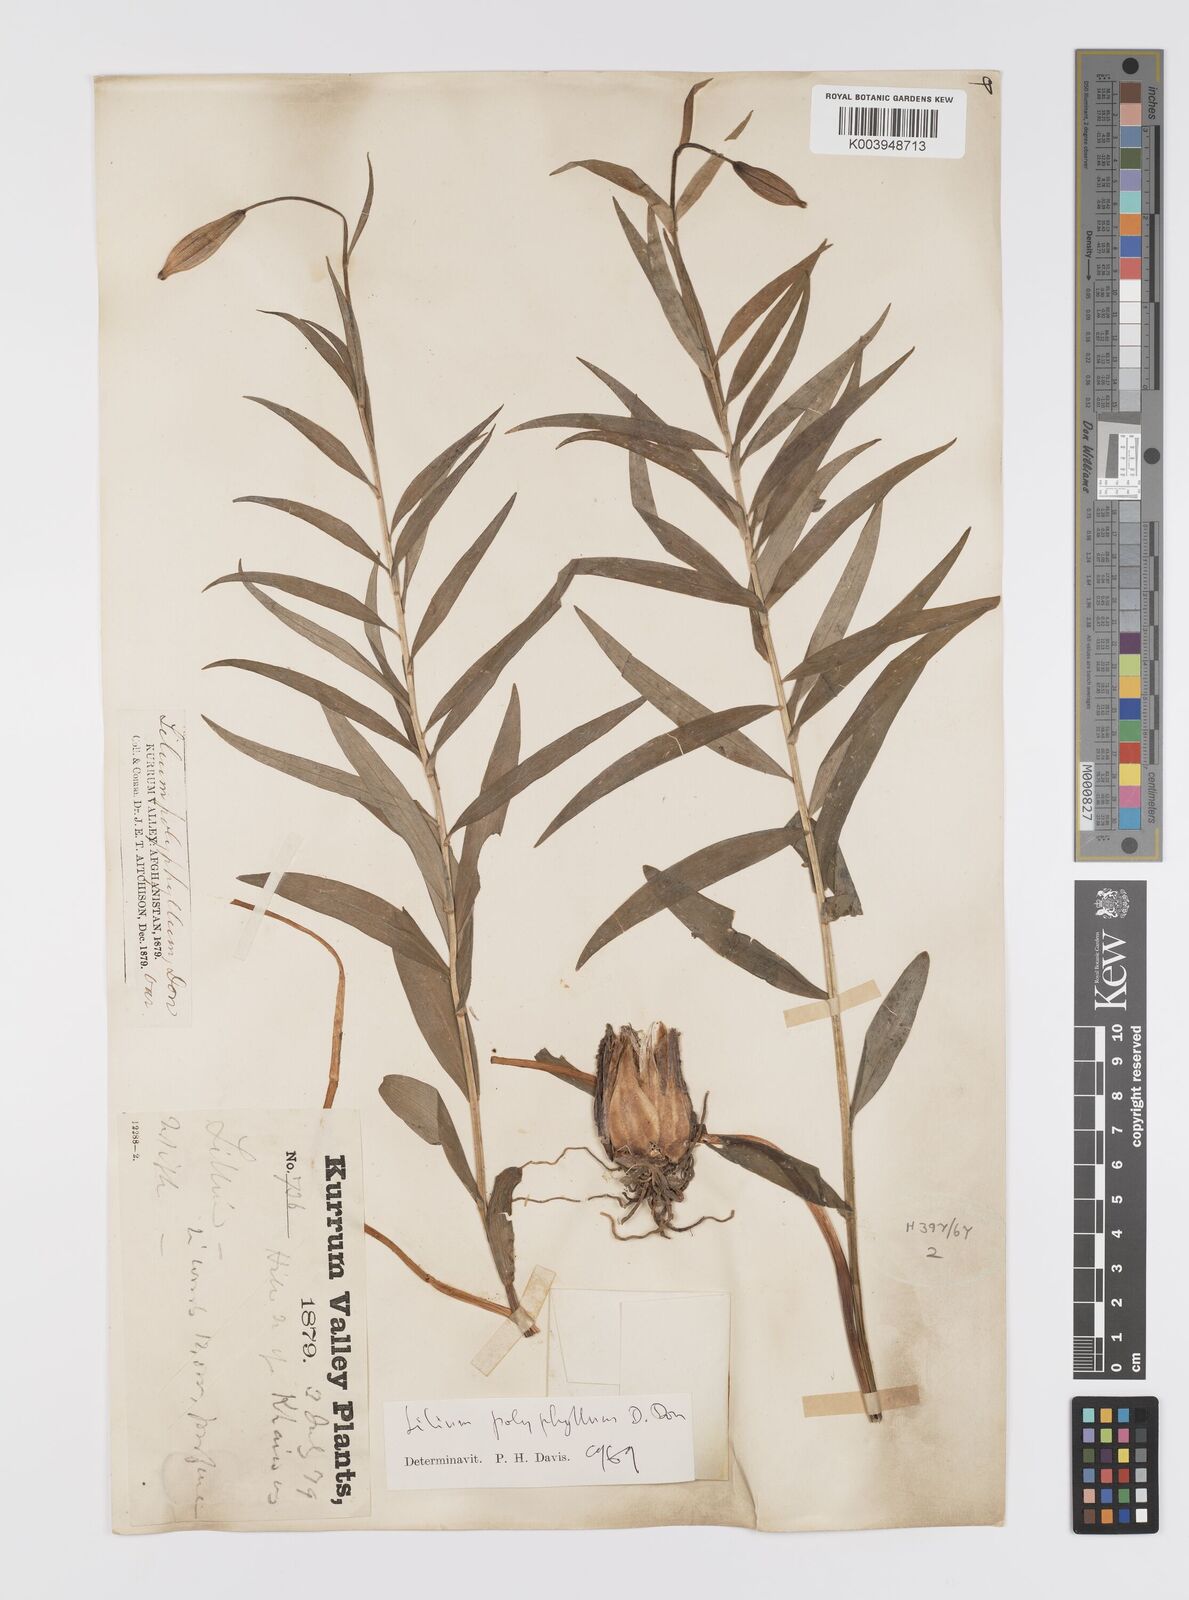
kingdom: Plantae
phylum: Tracheophyta
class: Liliopsida
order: Liliales
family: Liliaceae
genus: Lilium
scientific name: Lilium polyphyllum
